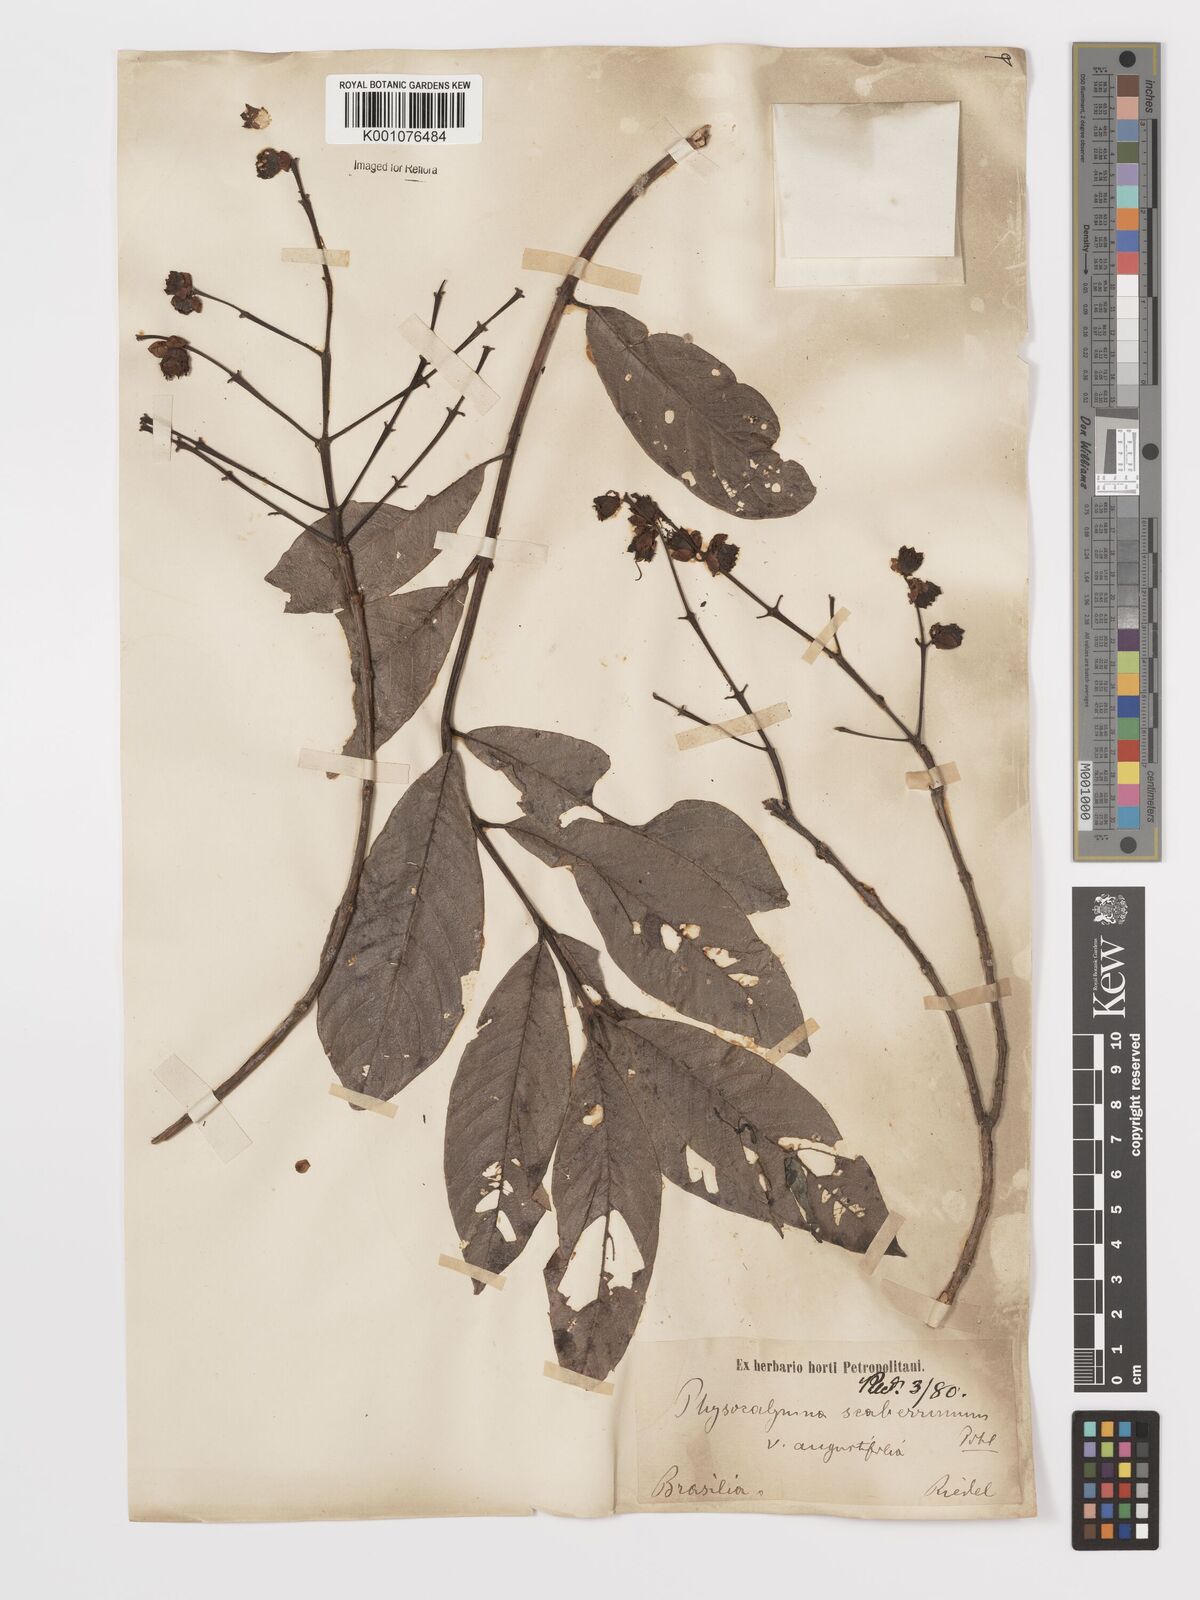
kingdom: Plantae
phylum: Tracheophyta
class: Magnoliopsida
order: Myrtales
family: Lythraceae
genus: Physocalymma
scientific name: Physocalymma scaberrimum
